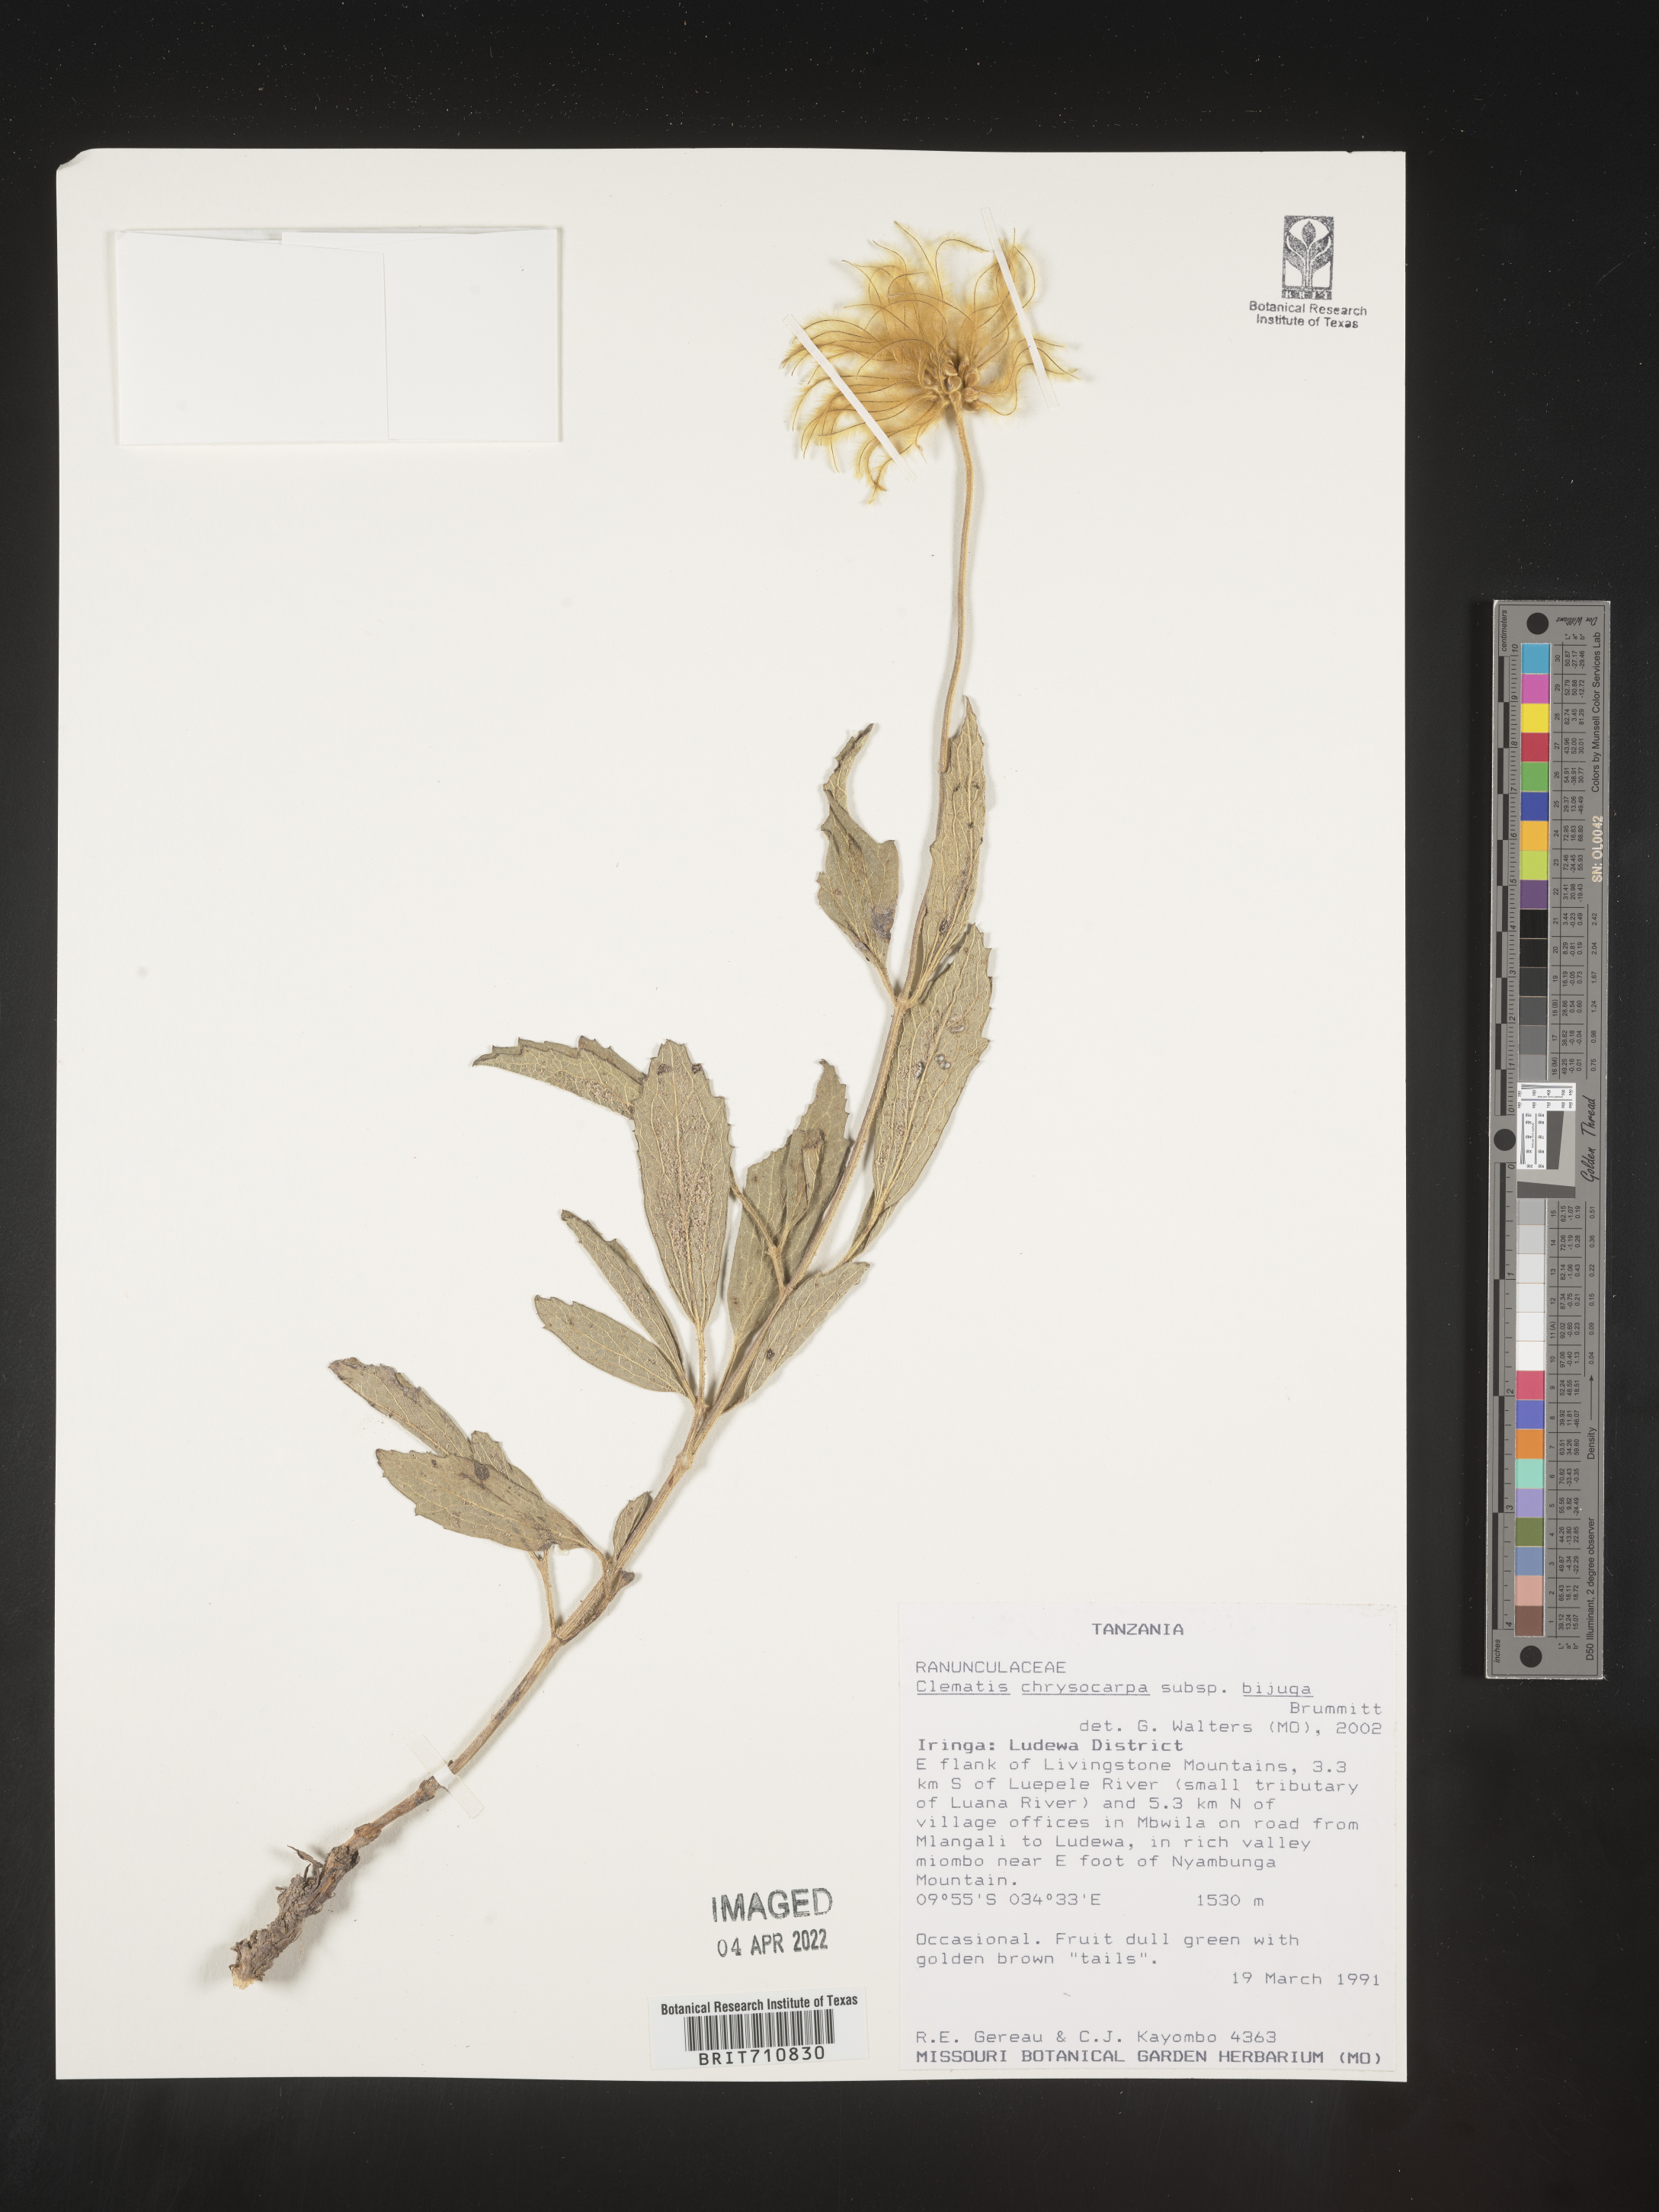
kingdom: Plantae
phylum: Tracheophyta
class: Magnoliopsida
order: Ranunculales
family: Ranunculaceae
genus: Clematis
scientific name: Clematis
